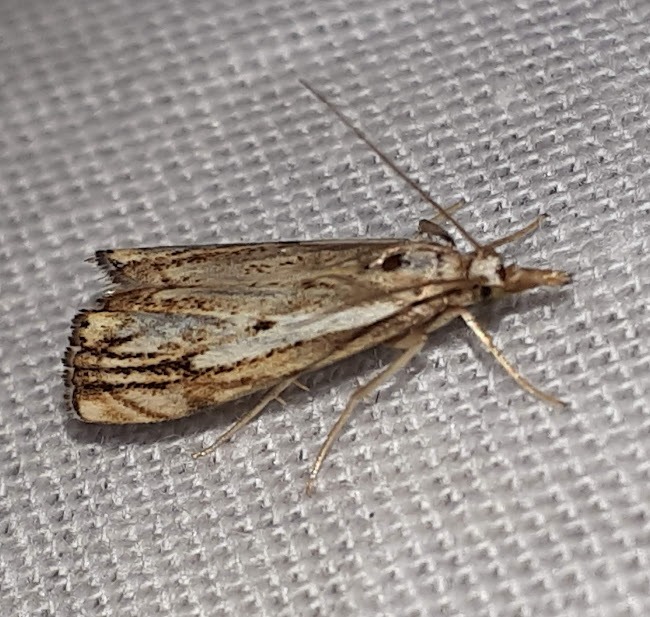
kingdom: Animalia
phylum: Arthropoda
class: Insecta
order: Lepidoptera
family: Crambidae
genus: Catoptria
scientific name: Catoptria falsella
